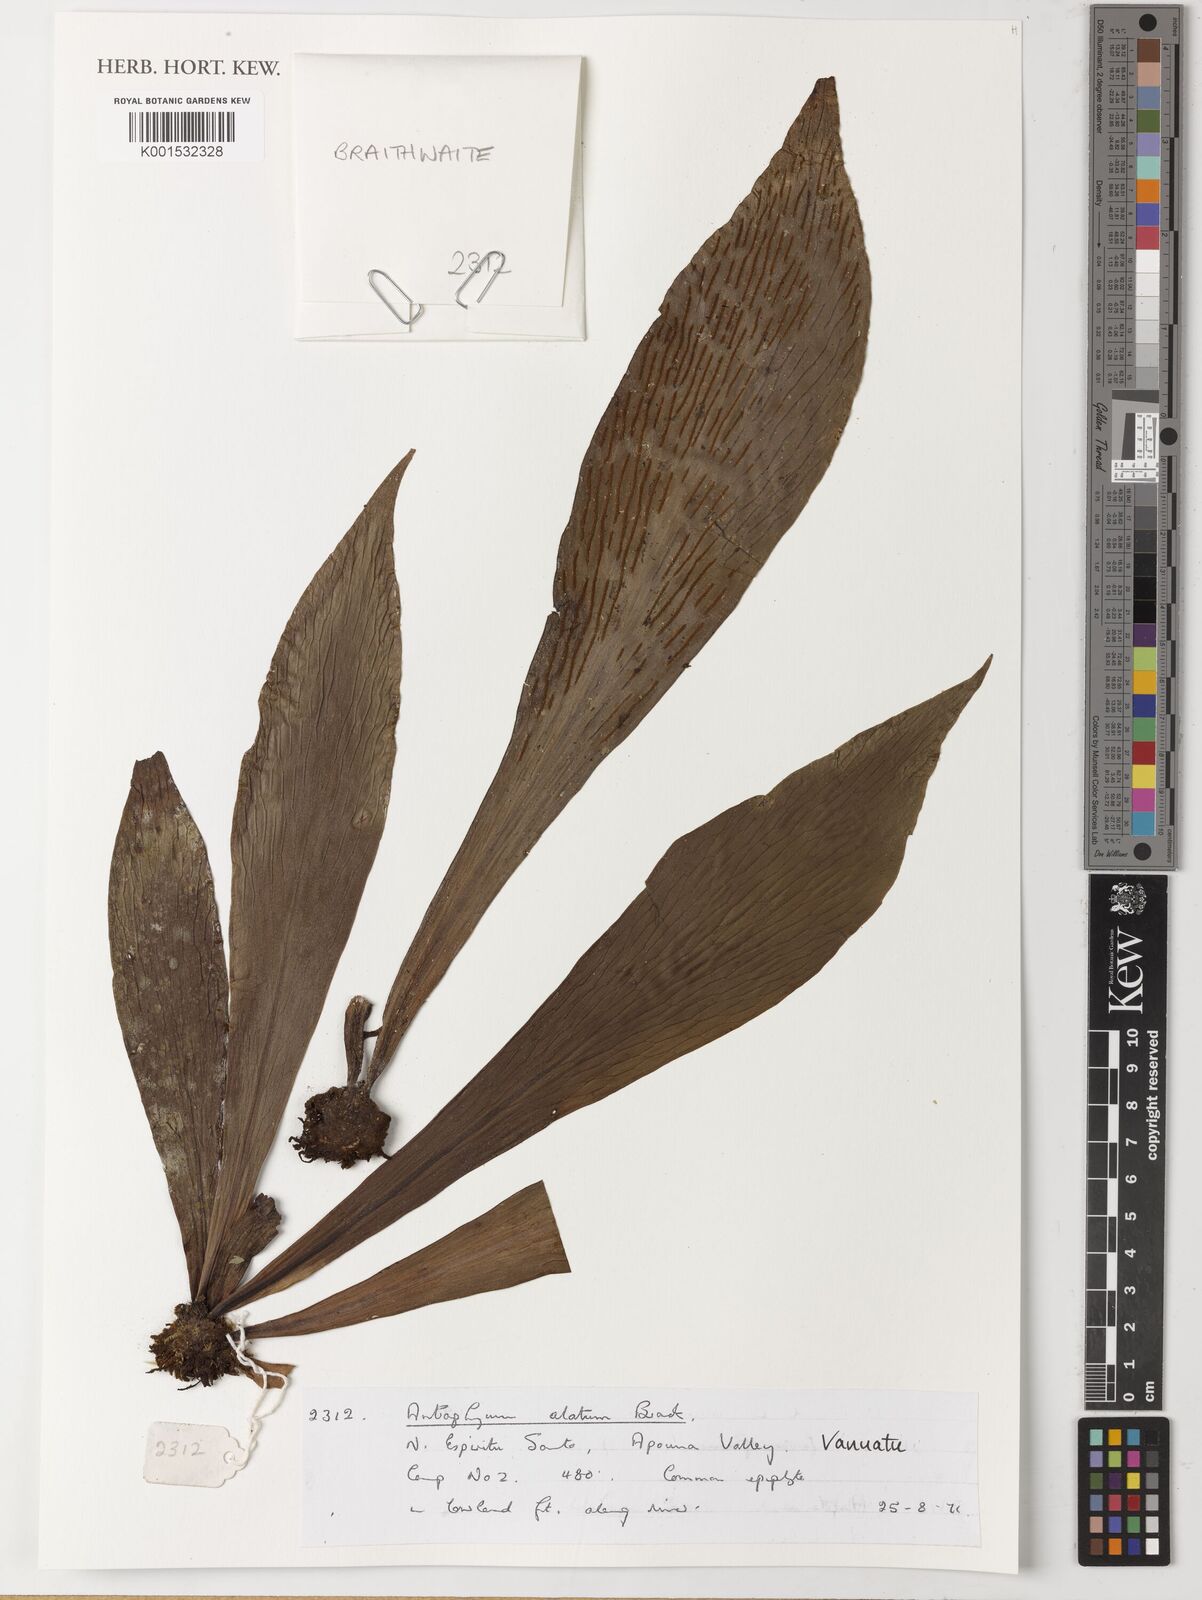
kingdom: Plantae
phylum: Tracheophyta
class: Polypodiopsida
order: Polypodiales
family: Pteridaceae
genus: Antrophyum
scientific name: Antrophyum callifolium
